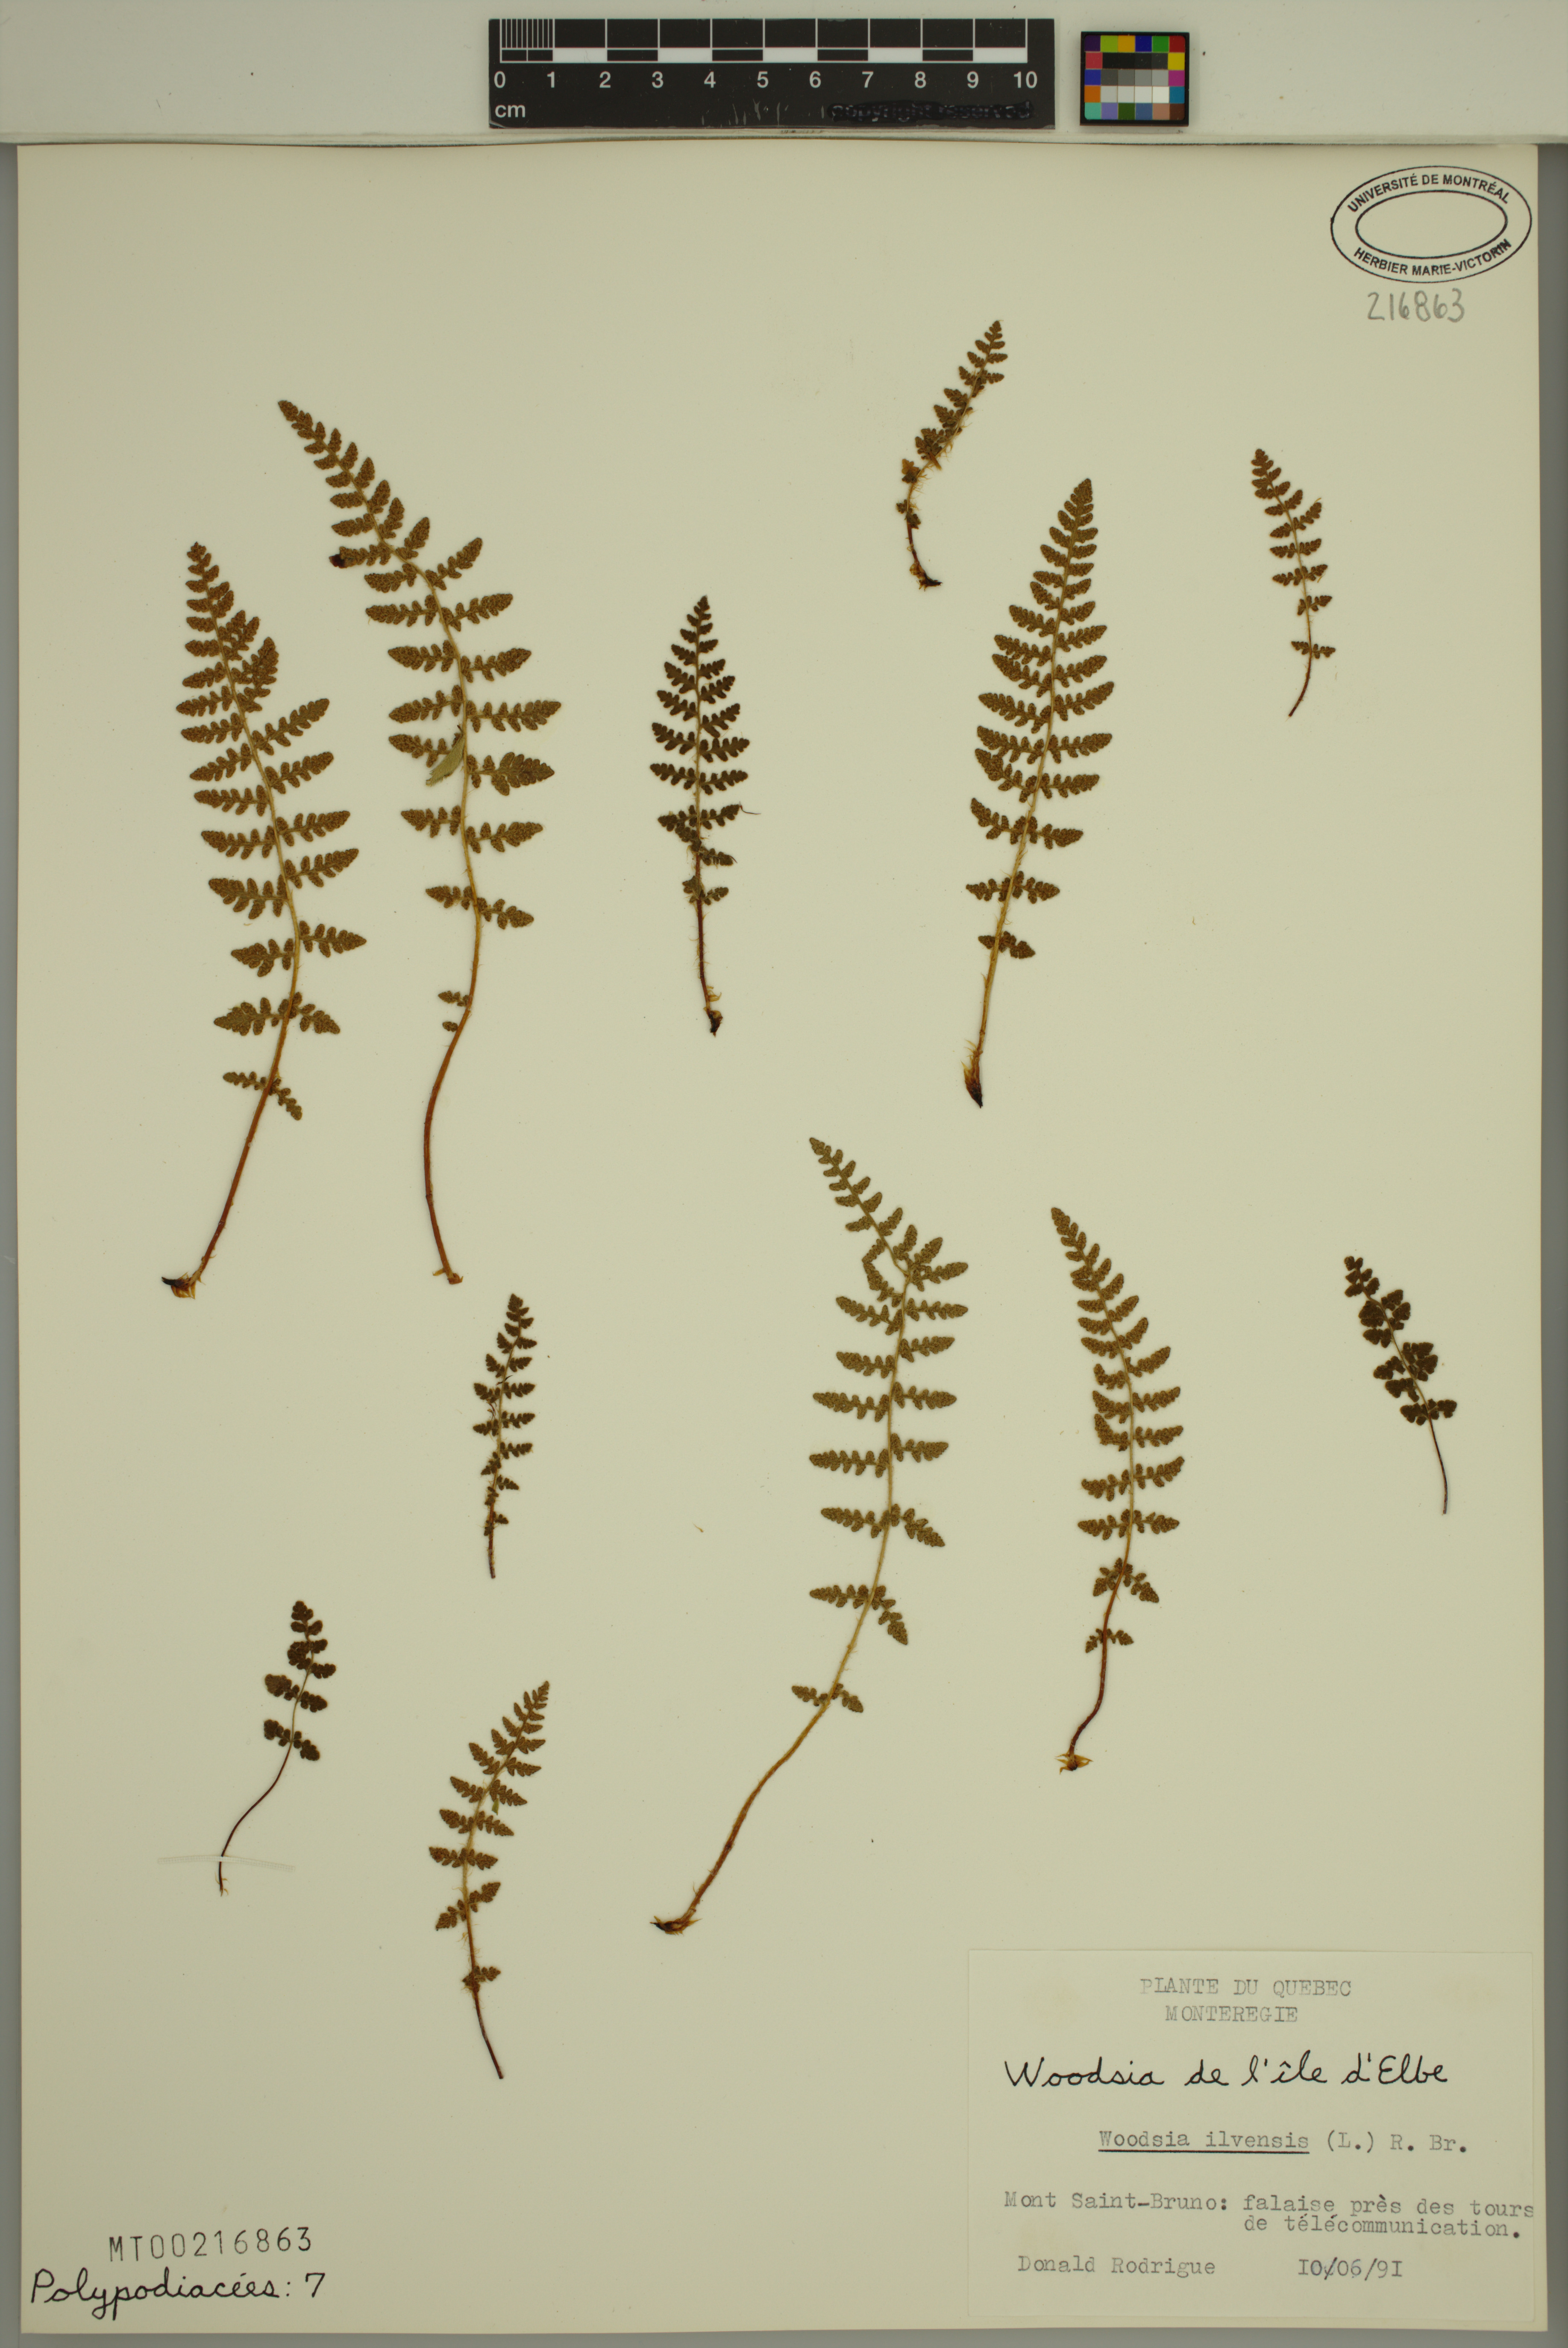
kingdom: Plantae
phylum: Tracheophyta
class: Polypodiopsida
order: Polypodiales
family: Woodsiaceae
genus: Woodsia
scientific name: Woodsia ilvensis
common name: Fragrant woodsia
